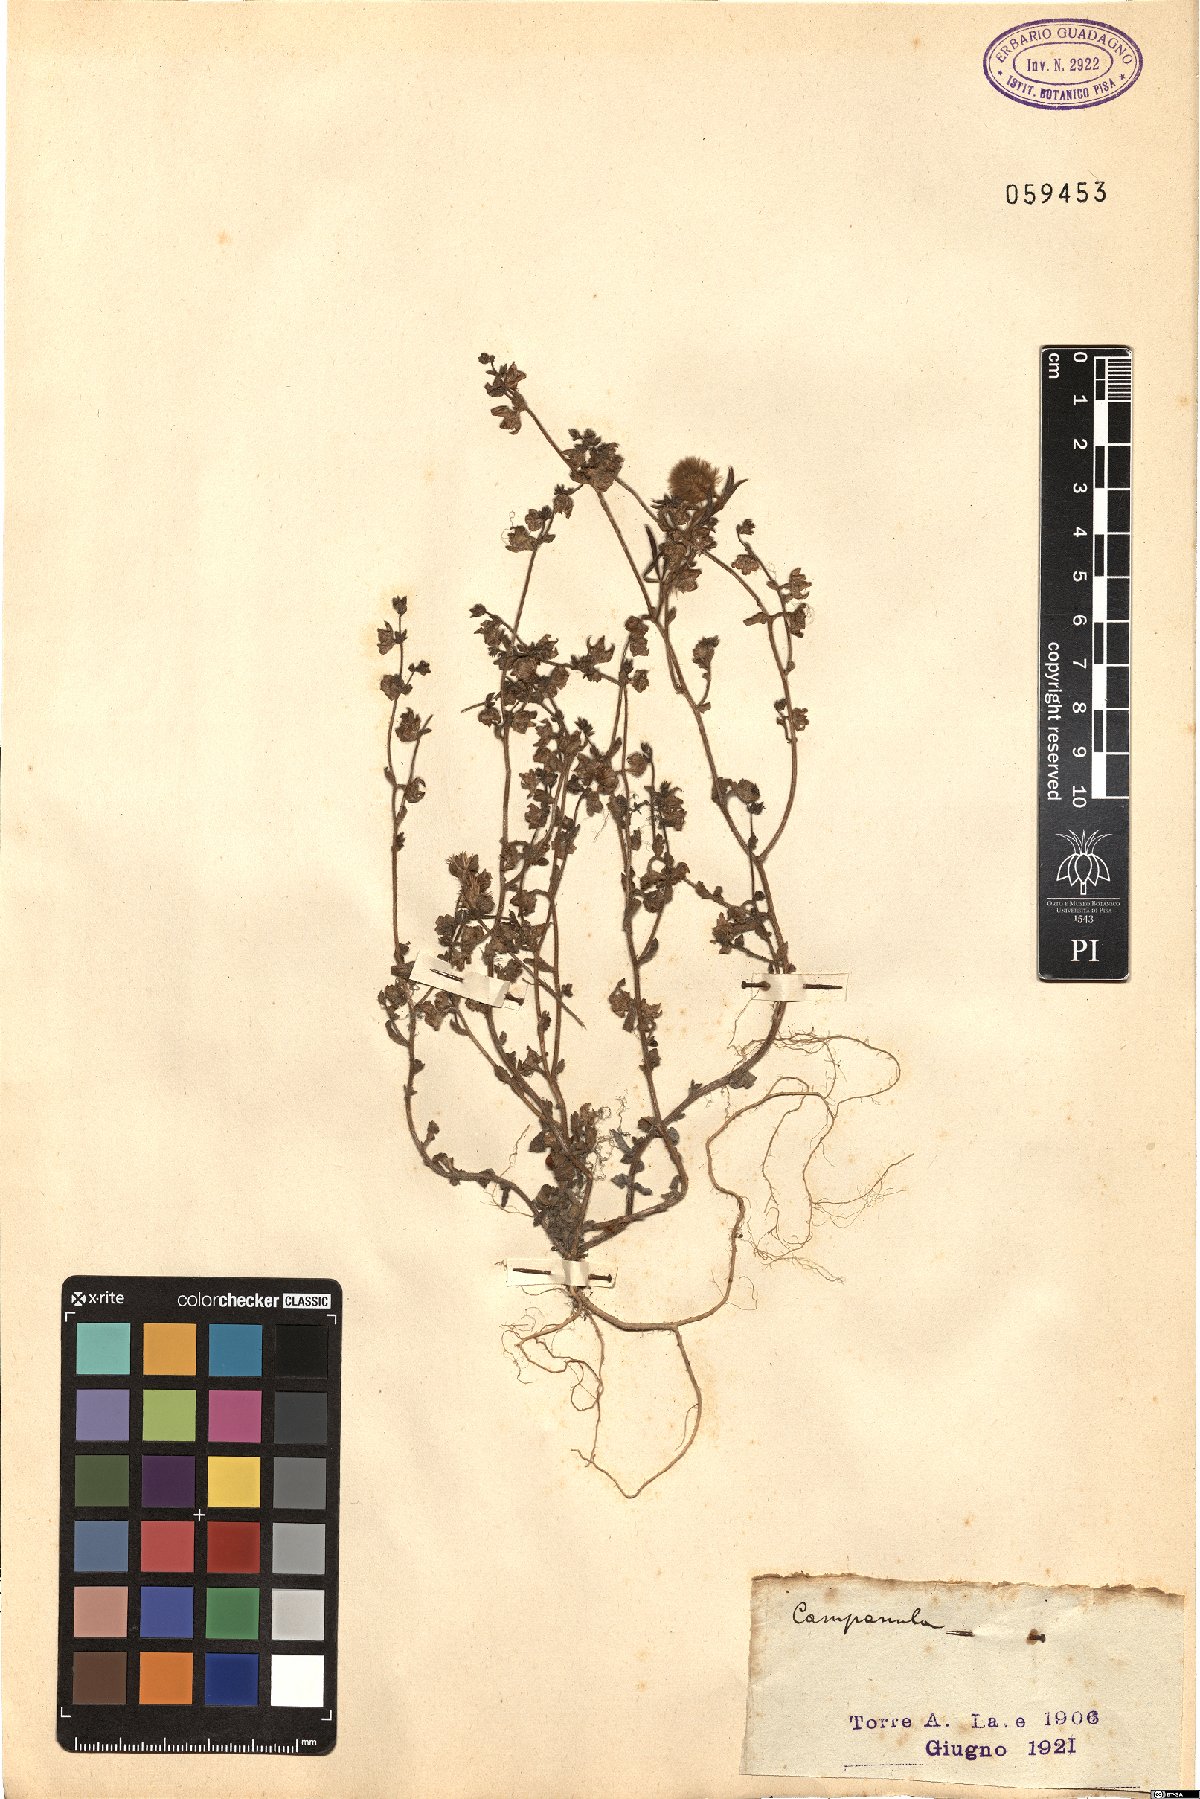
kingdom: Plantae
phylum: Tracheophyta
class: Magnoliopsida
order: Asterales
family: Campanulaceae
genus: Campanula
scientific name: Campanula
